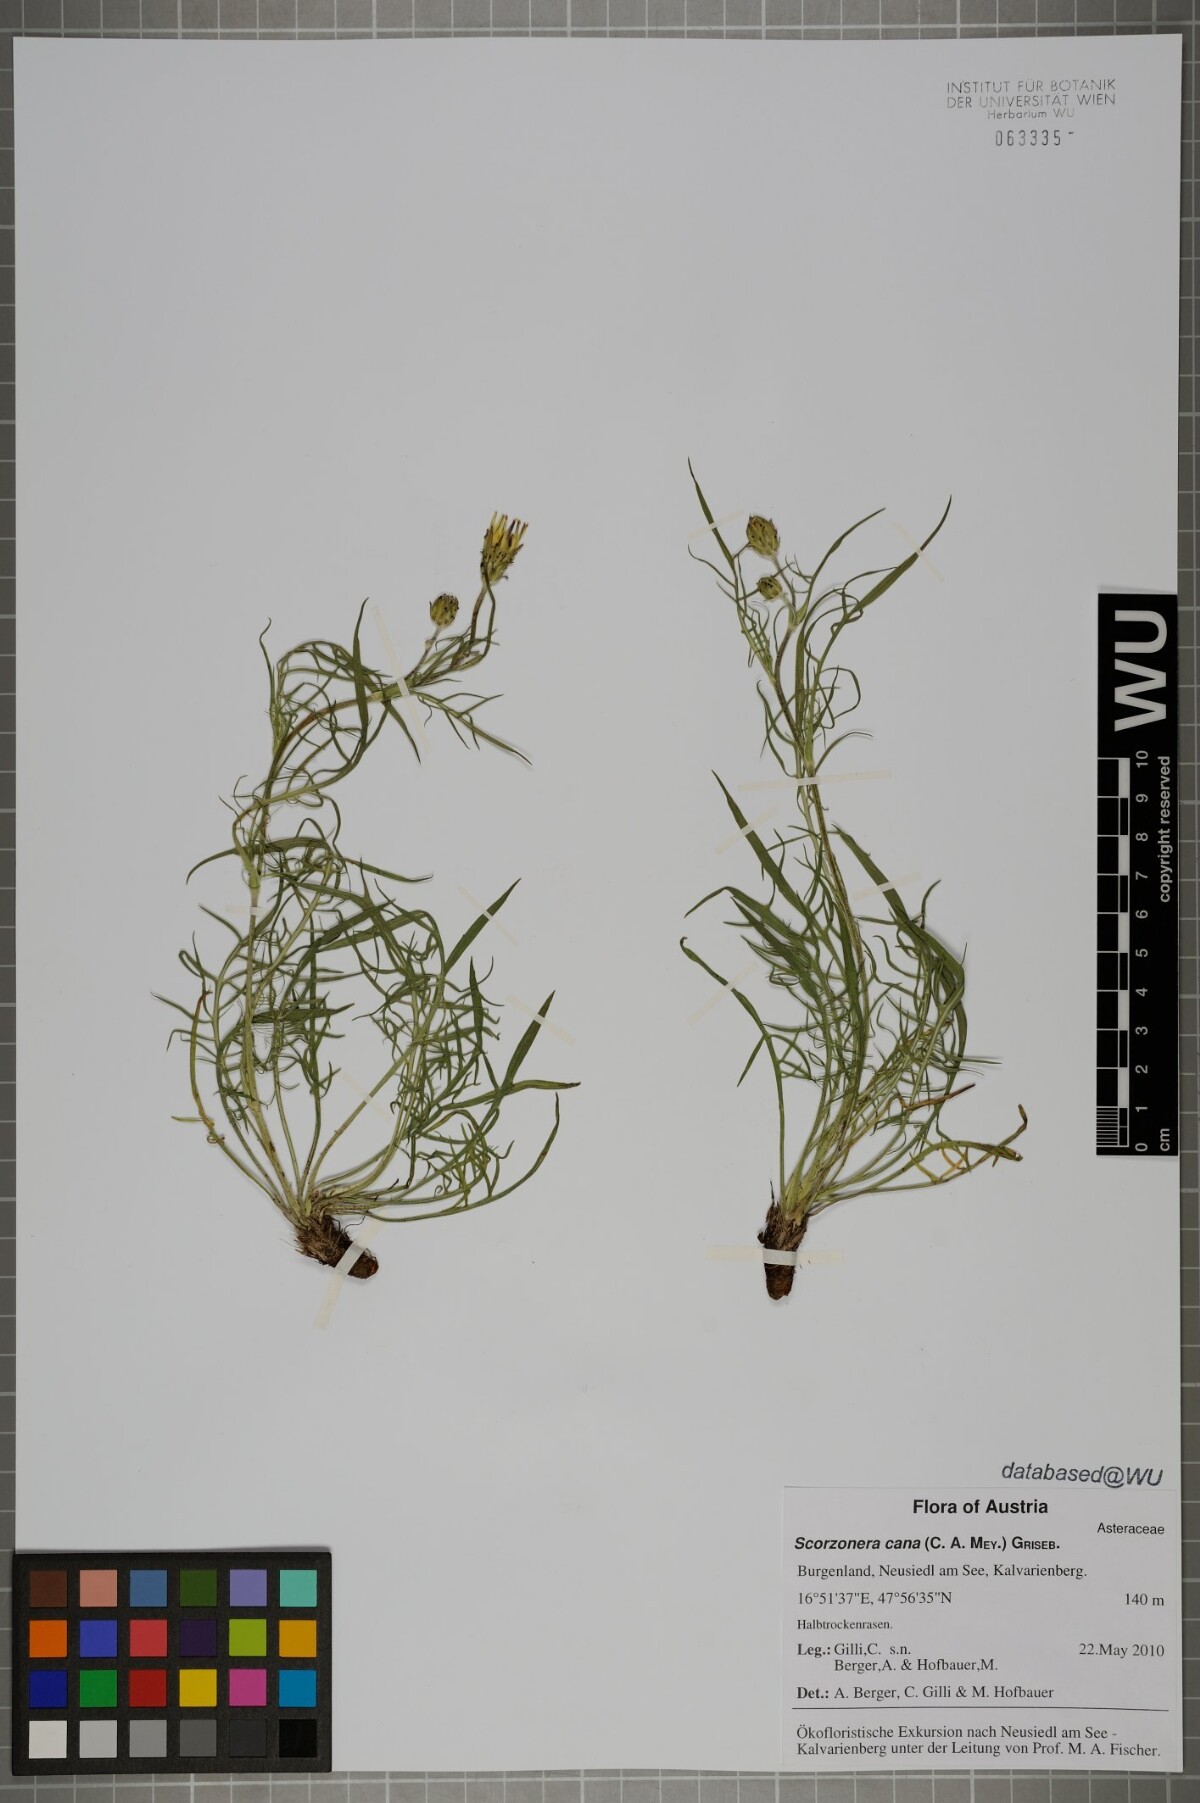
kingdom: Plantae
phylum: Tracheophyta
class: Magnoliopsida
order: Asterales
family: Asteraceae
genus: Scorzonera
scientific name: Scorzonera cana
